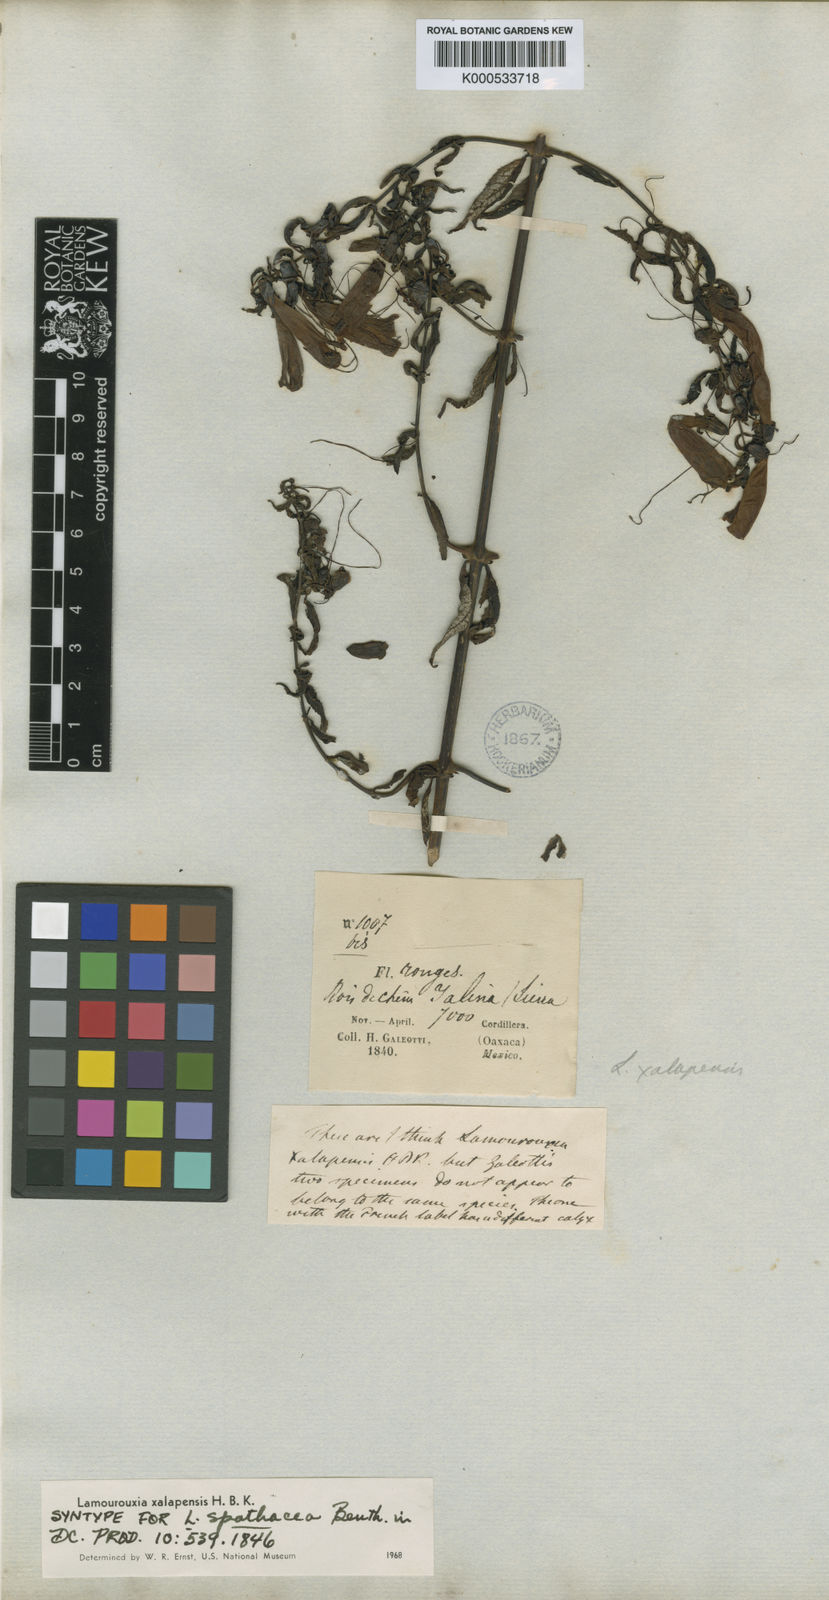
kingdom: Plantae
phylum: Tracheophyta
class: Magnoliopsida
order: Lamiales
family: Orobanchaceae
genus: Lamourouxia
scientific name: Lamourouxia xalapensis
